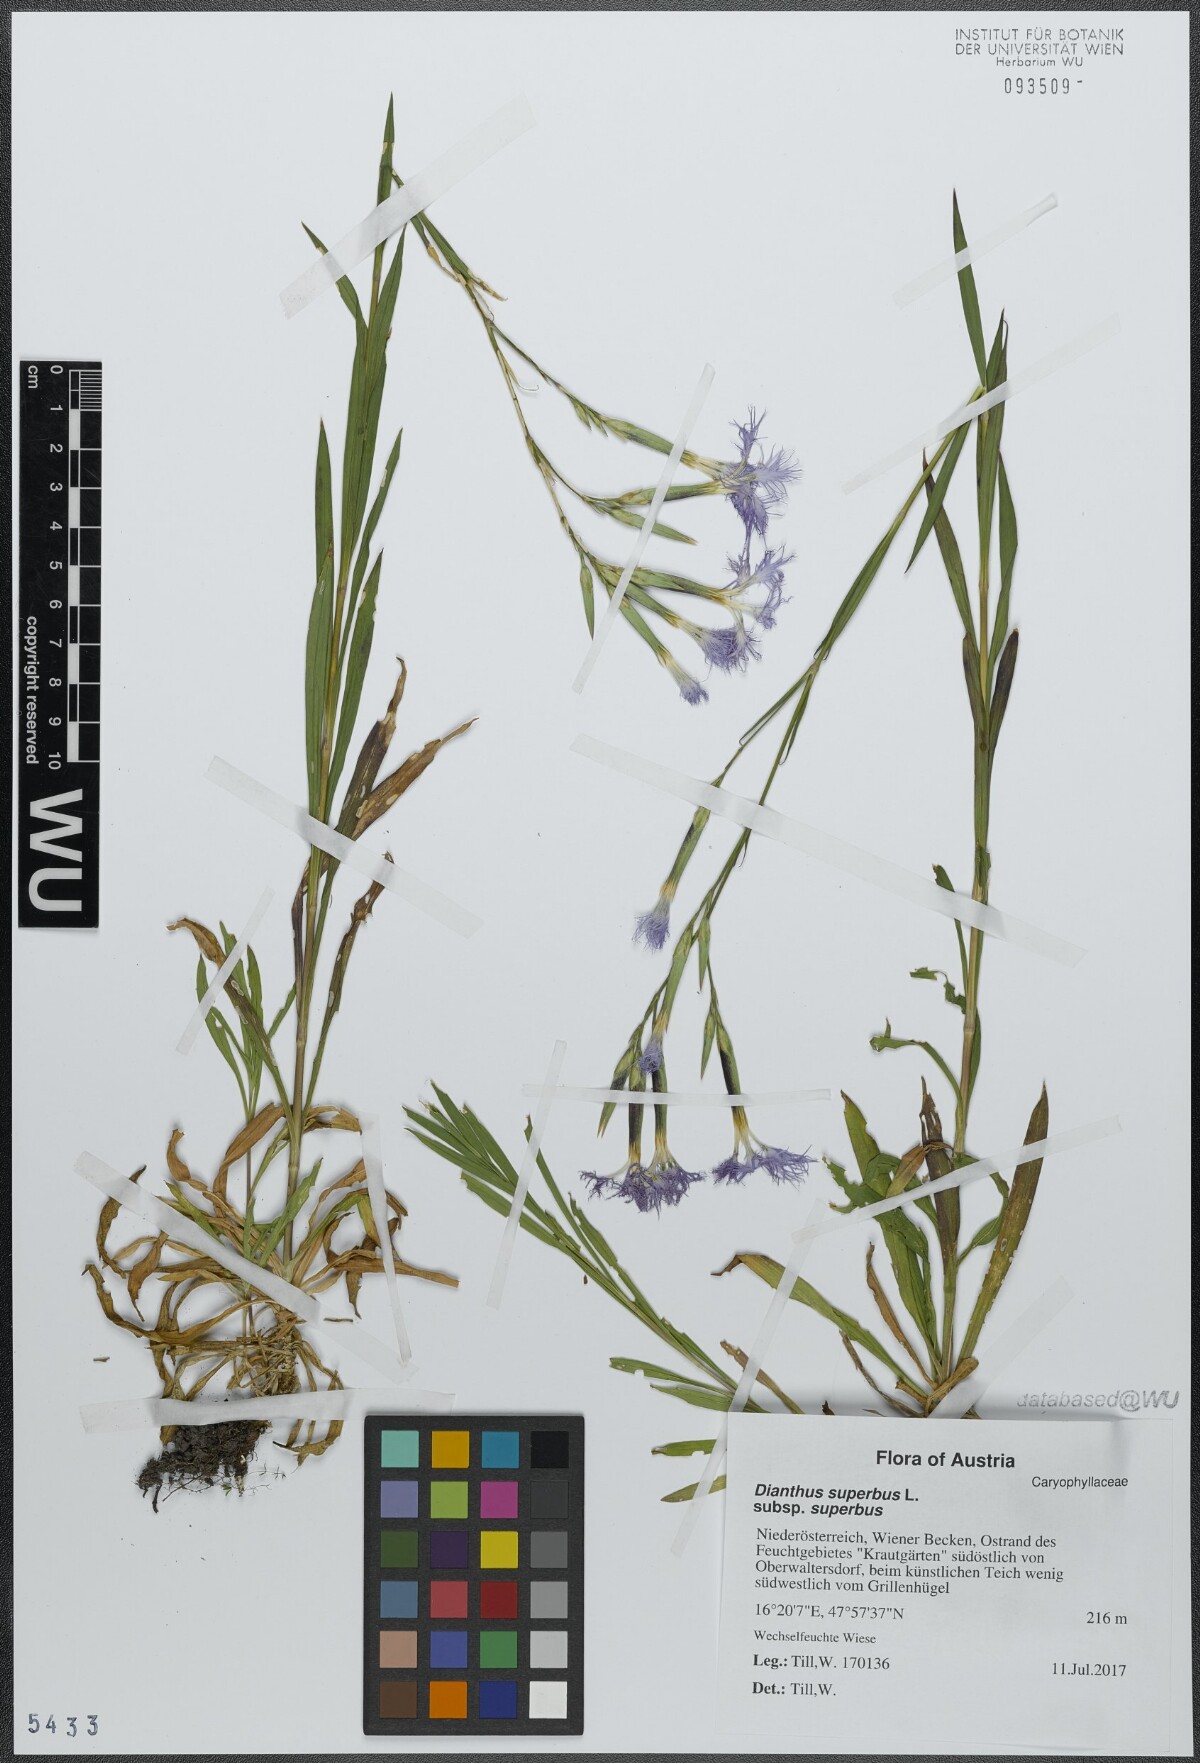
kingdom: Plantae
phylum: Tracheophyta
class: Magnoliopsida
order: Caryophyllales
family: Caryophyllaceae
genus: Dianthus
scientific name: Dianthus superbus
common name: Fringed pink
